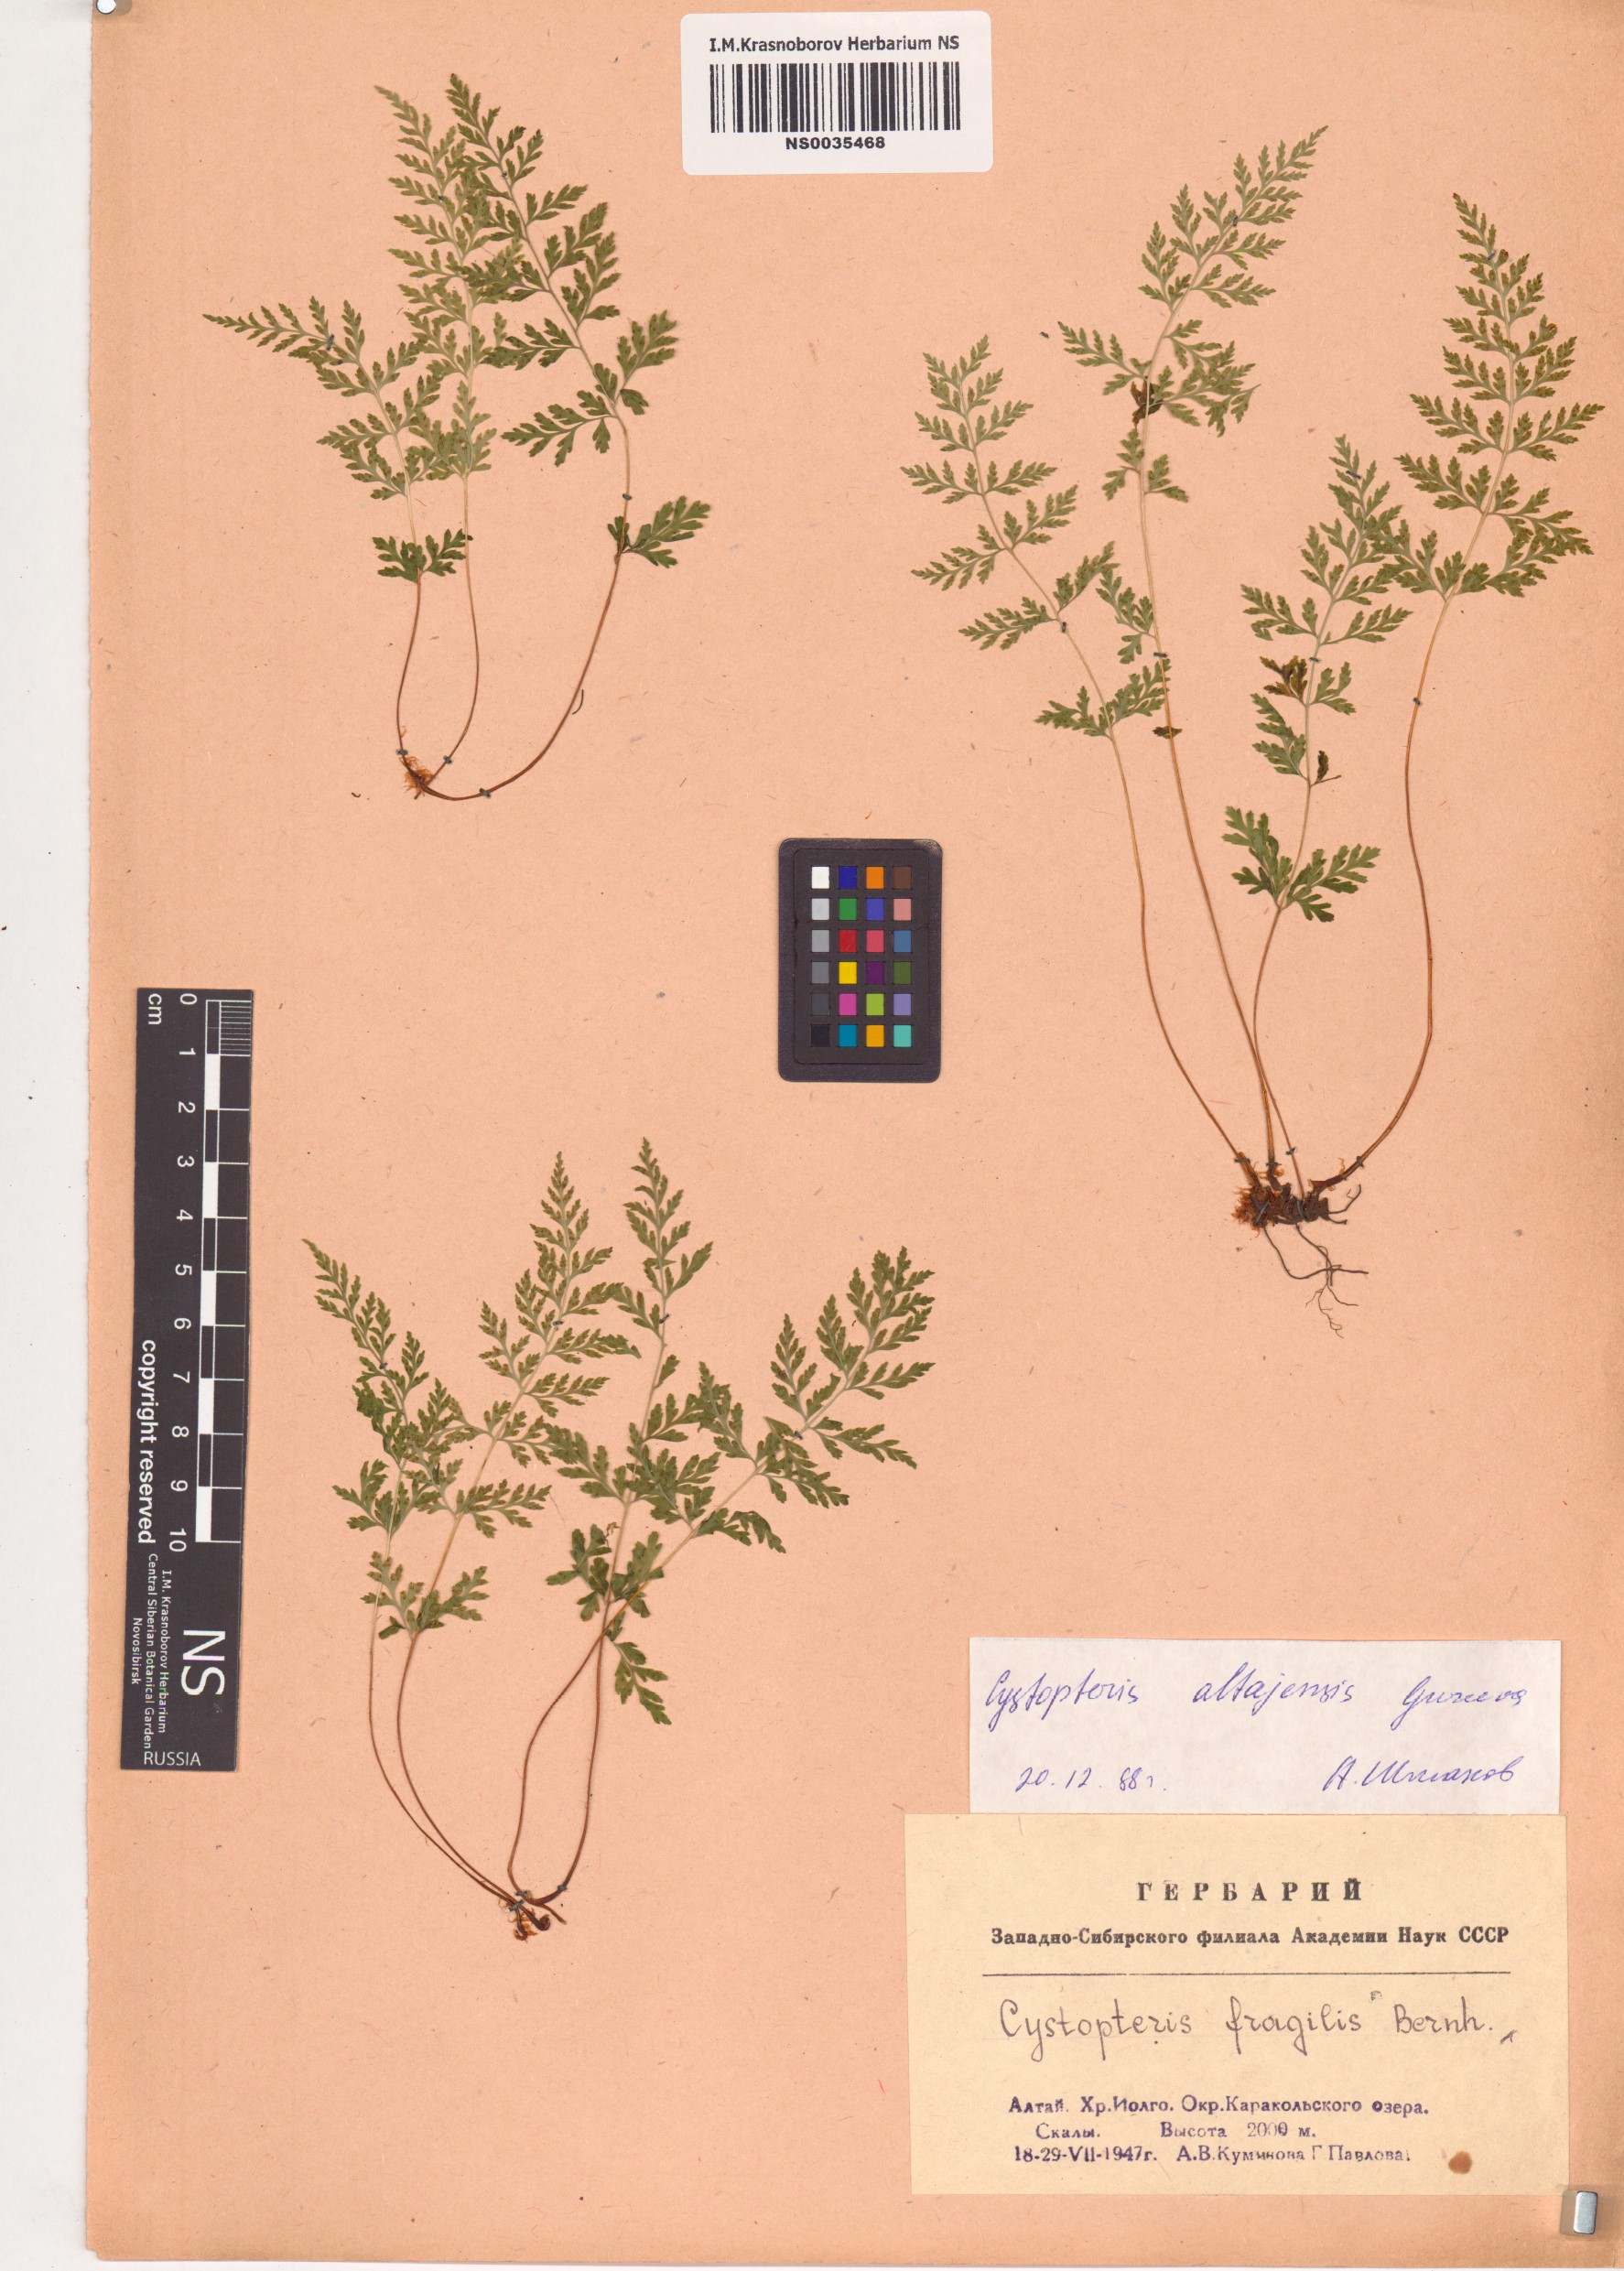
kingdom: Plantae
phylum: Tracheophyta
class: Polypodiopsida
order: Polypodiales
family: Cystopteridaceae
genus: Cystopteris
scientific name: Cystopteris diaphana
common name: Greenish bladder-fern
